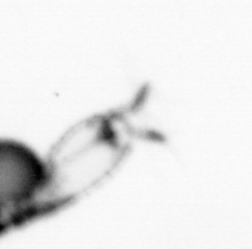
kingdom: Animalia
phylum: Arthropoda
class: Copepoda
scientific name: Copepoda
